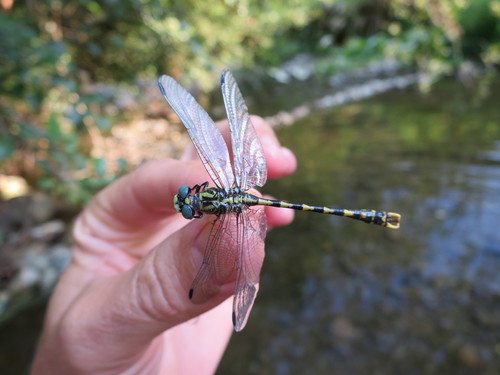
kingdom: Animalia
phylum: Arthropoda
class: Insecta
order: Odonata
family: Gomphidae
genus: Onychogomphus
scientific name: Onychogomphus uncatus
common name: Large pincertail
